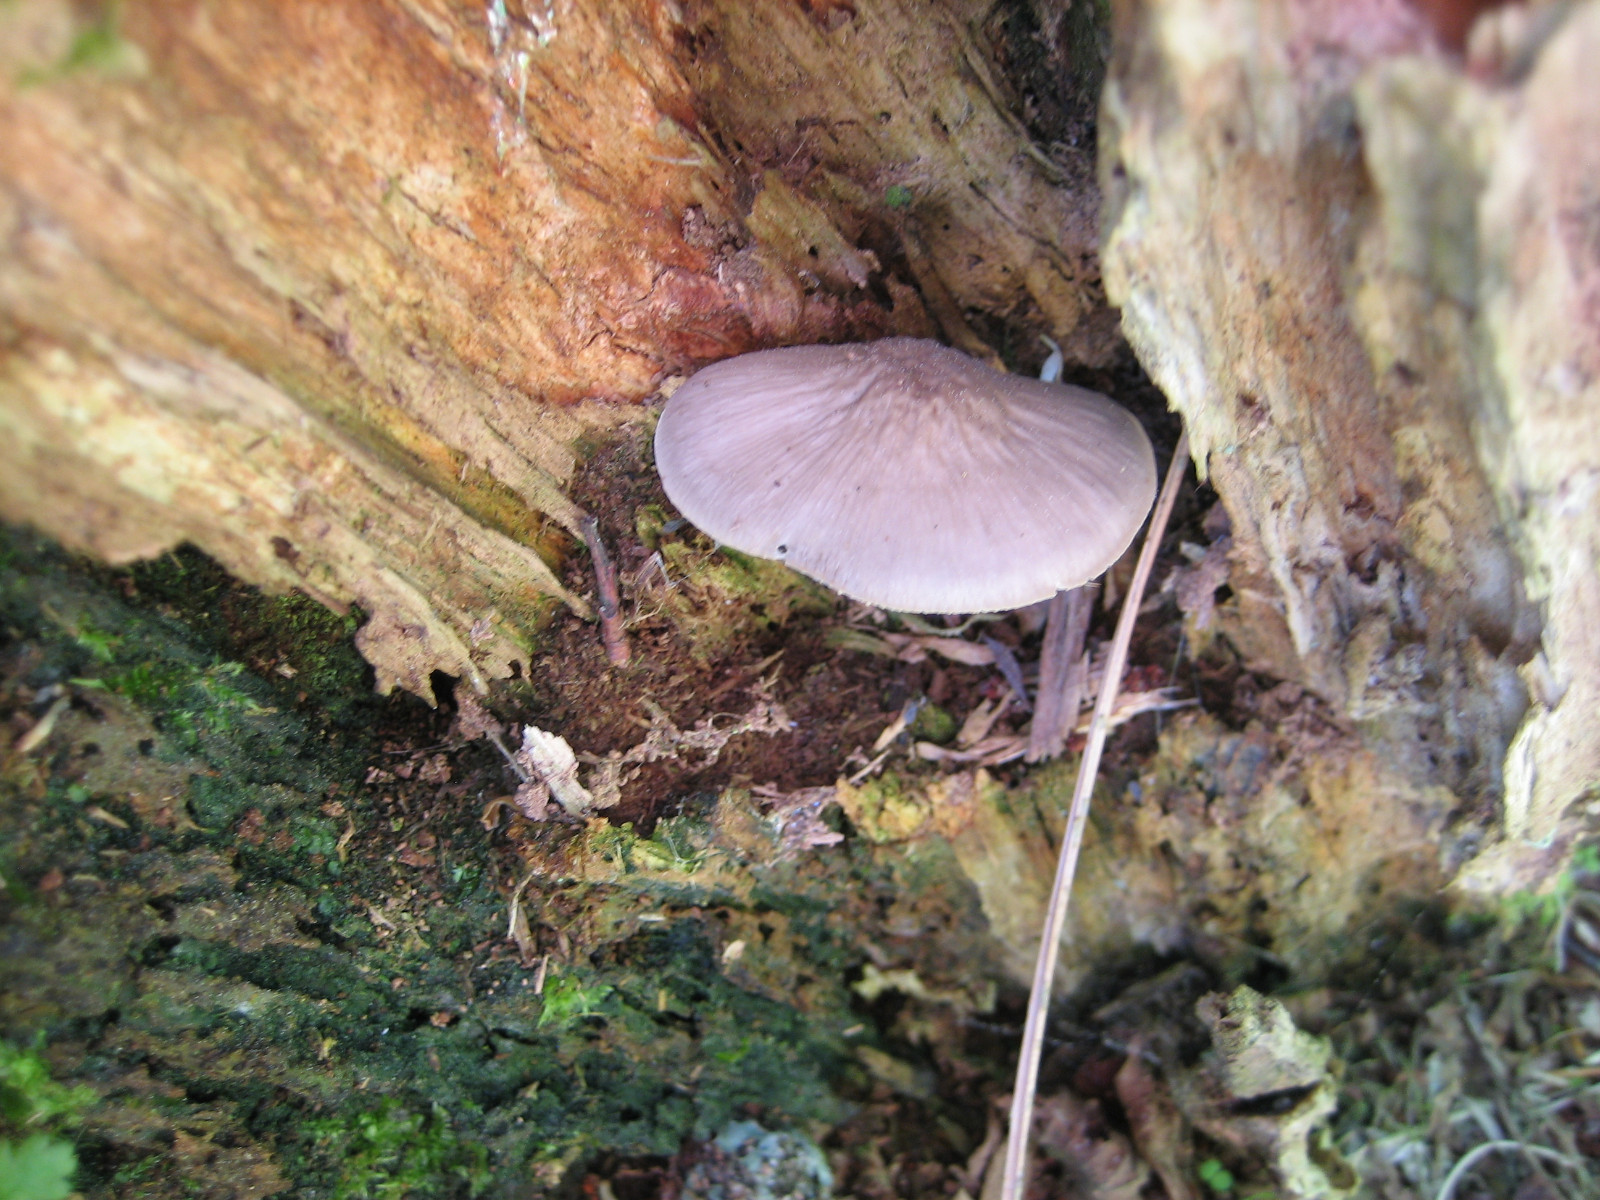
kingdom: Fungi
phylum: Basidiomycota
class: Agaricomycetes
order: Agaricales
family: Mycenaceae
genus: Mycena
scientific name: Mycena galericulata
